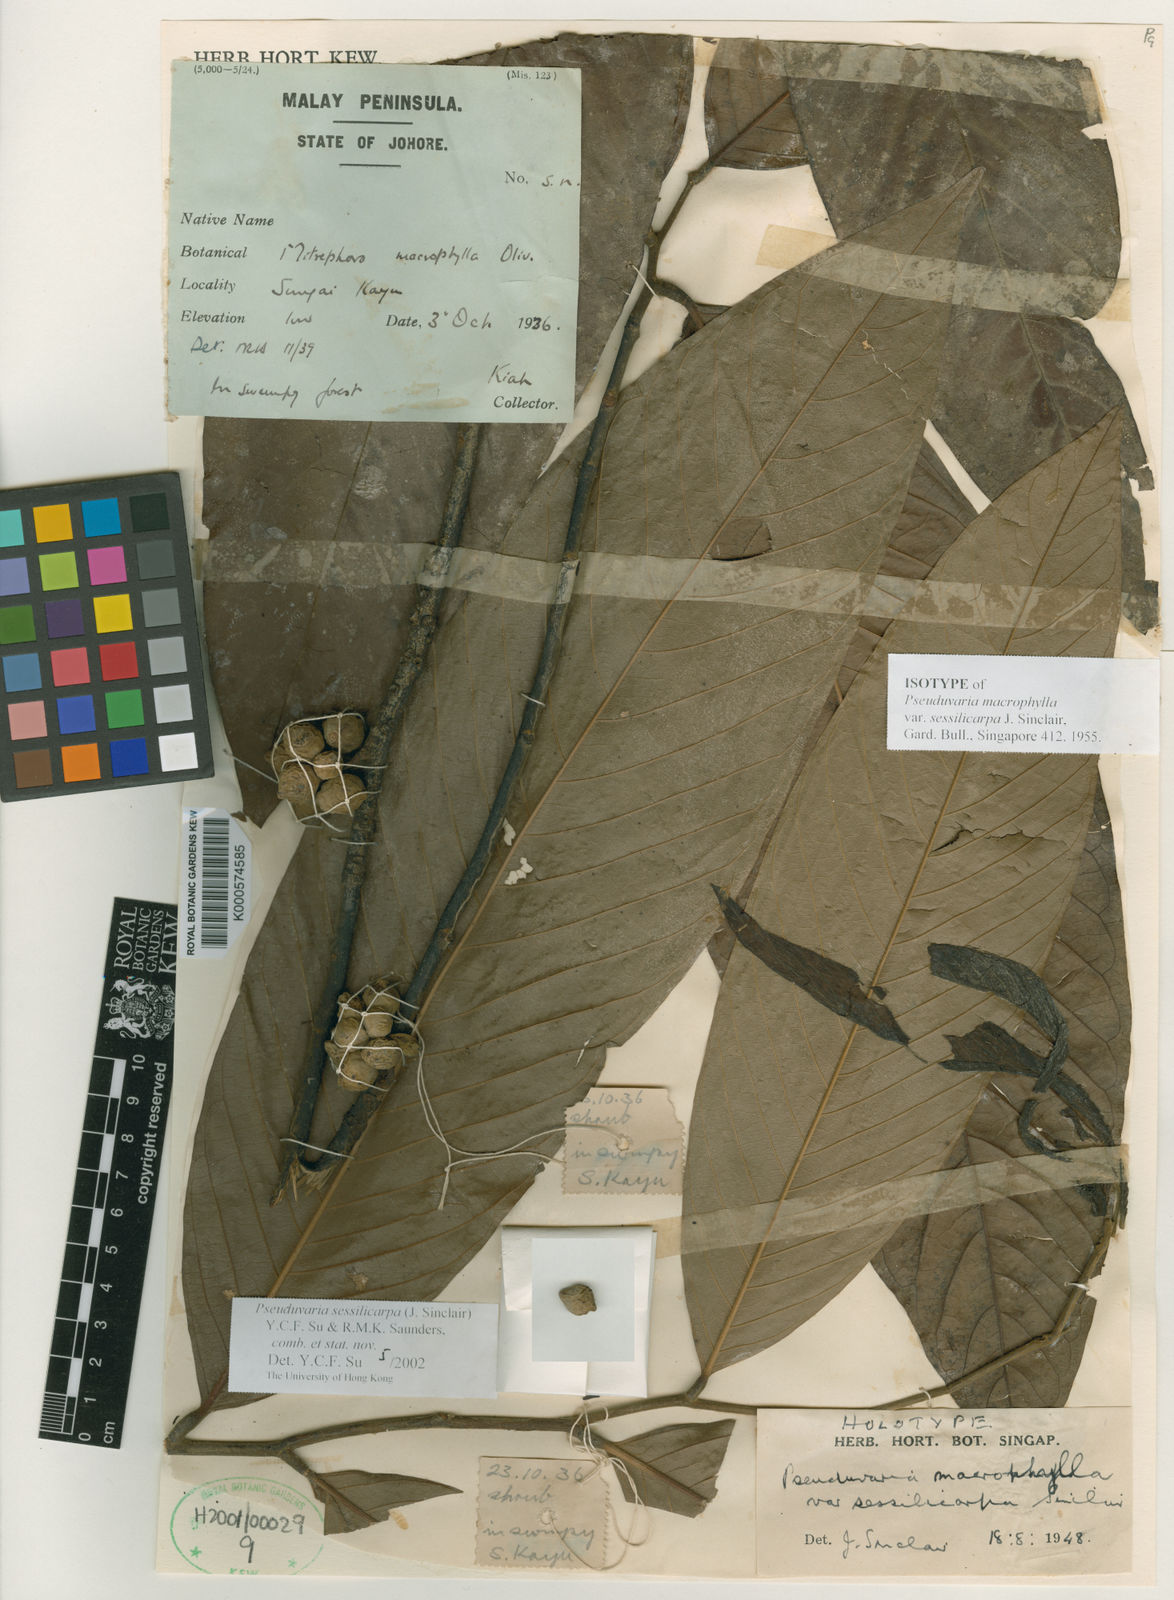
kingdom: Plantae
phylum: Tracheophyta
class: Magnoliopsida
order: Magnoliales
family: Annonaceae
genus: Pseuduvaria
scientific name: Pseuduvaria sessilicarpa
